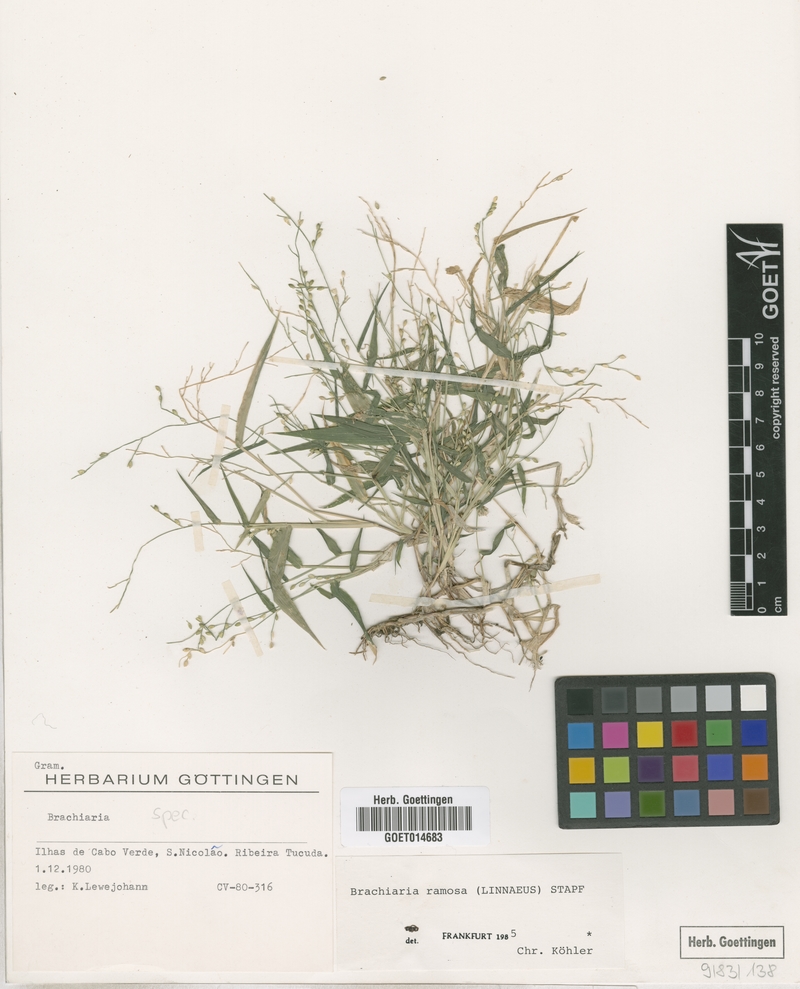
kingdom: Plantae
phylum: Tracheophyta
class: Liliopsida
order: Poales
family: Poaceae
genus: Urochloa
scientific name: Urochloa ramosa
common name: Browntop millet
